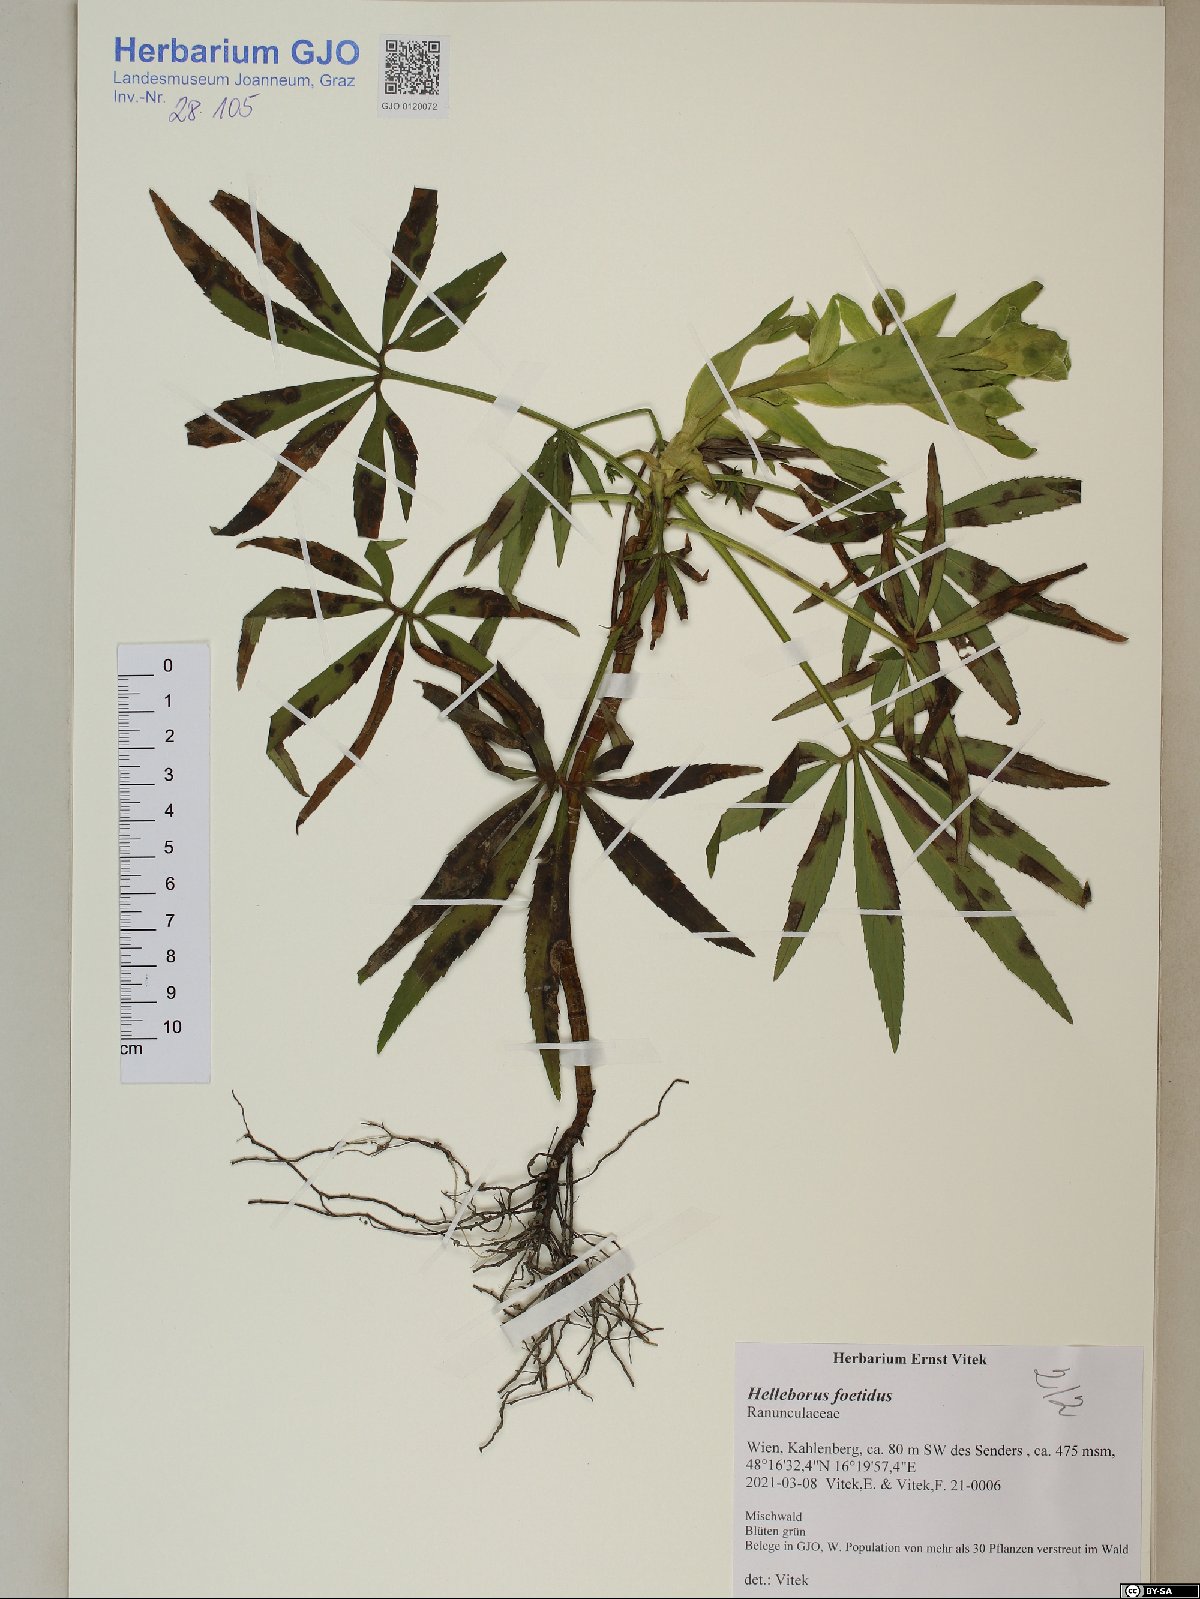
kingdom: Plantae
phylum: Tracheophyta
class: Magnoliopsida
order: Ranunculales
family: Ranunculaceae
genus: Helleborus
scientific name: Helleborus foetidus
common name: Stinking hellebore
